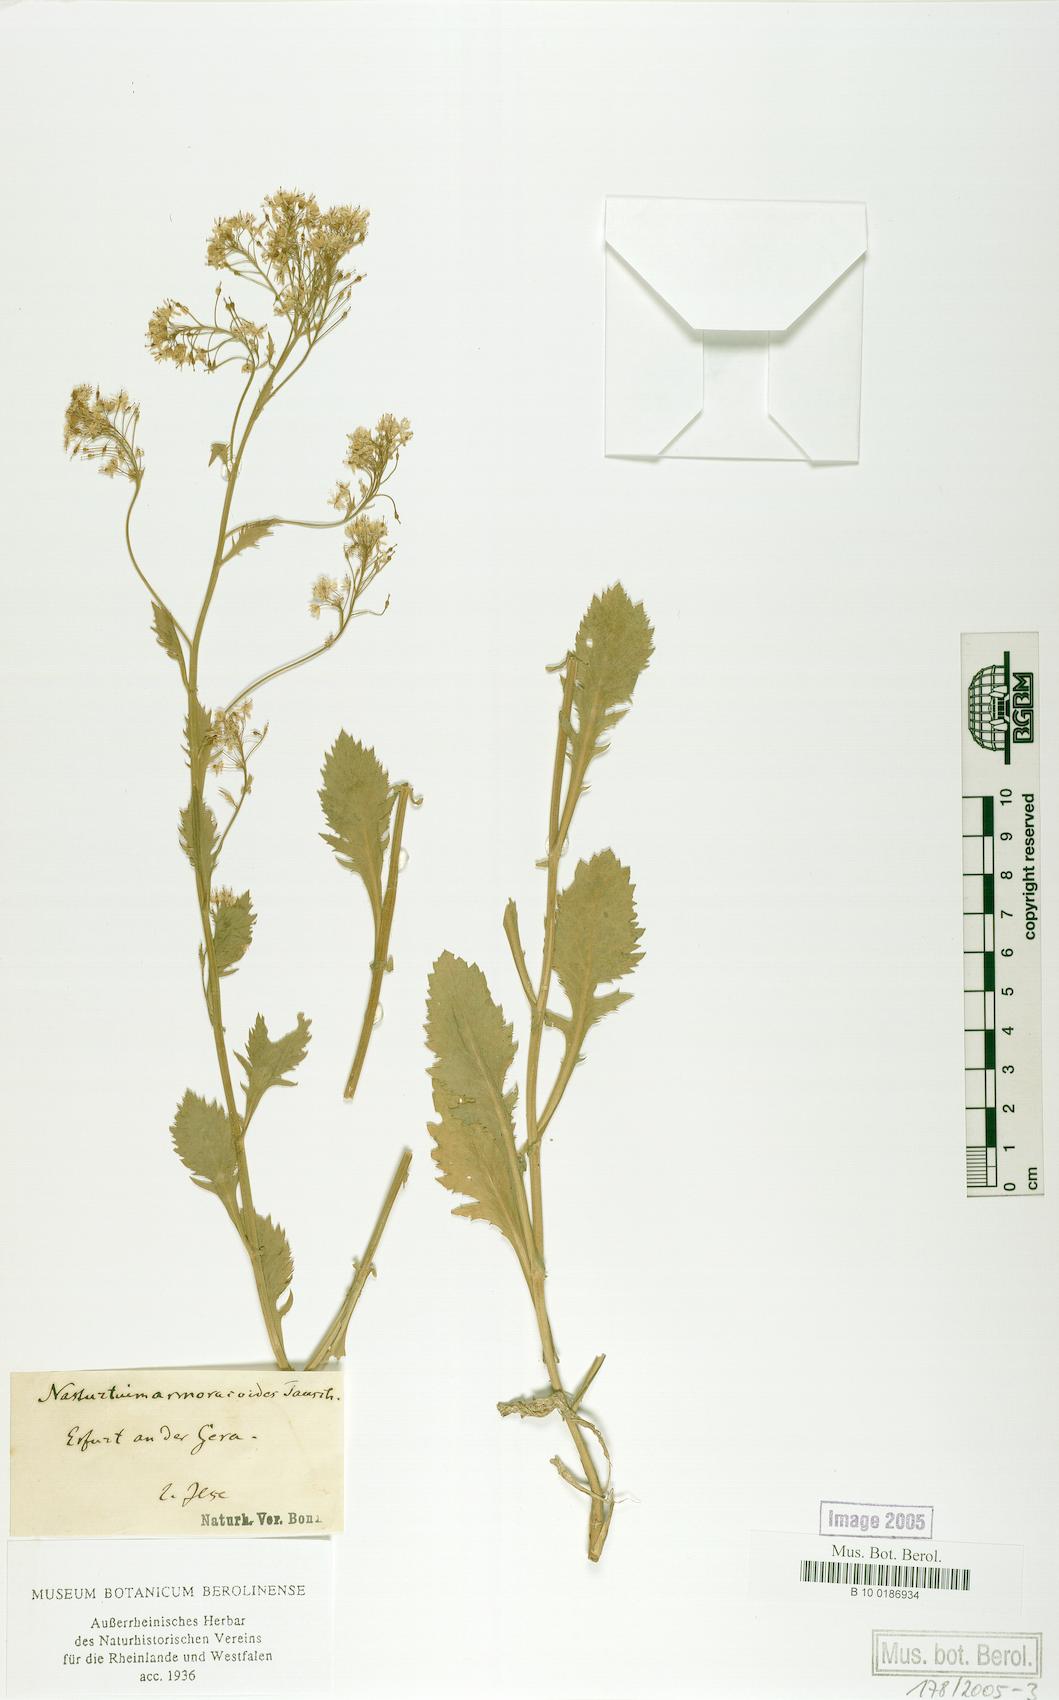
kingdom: Plantae
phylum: Tracheophyta
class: Magnoliopsida
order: Brassicales
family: Brassicaceae
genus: Rorippa
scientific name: Rorippa anceps
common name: Rorippa
